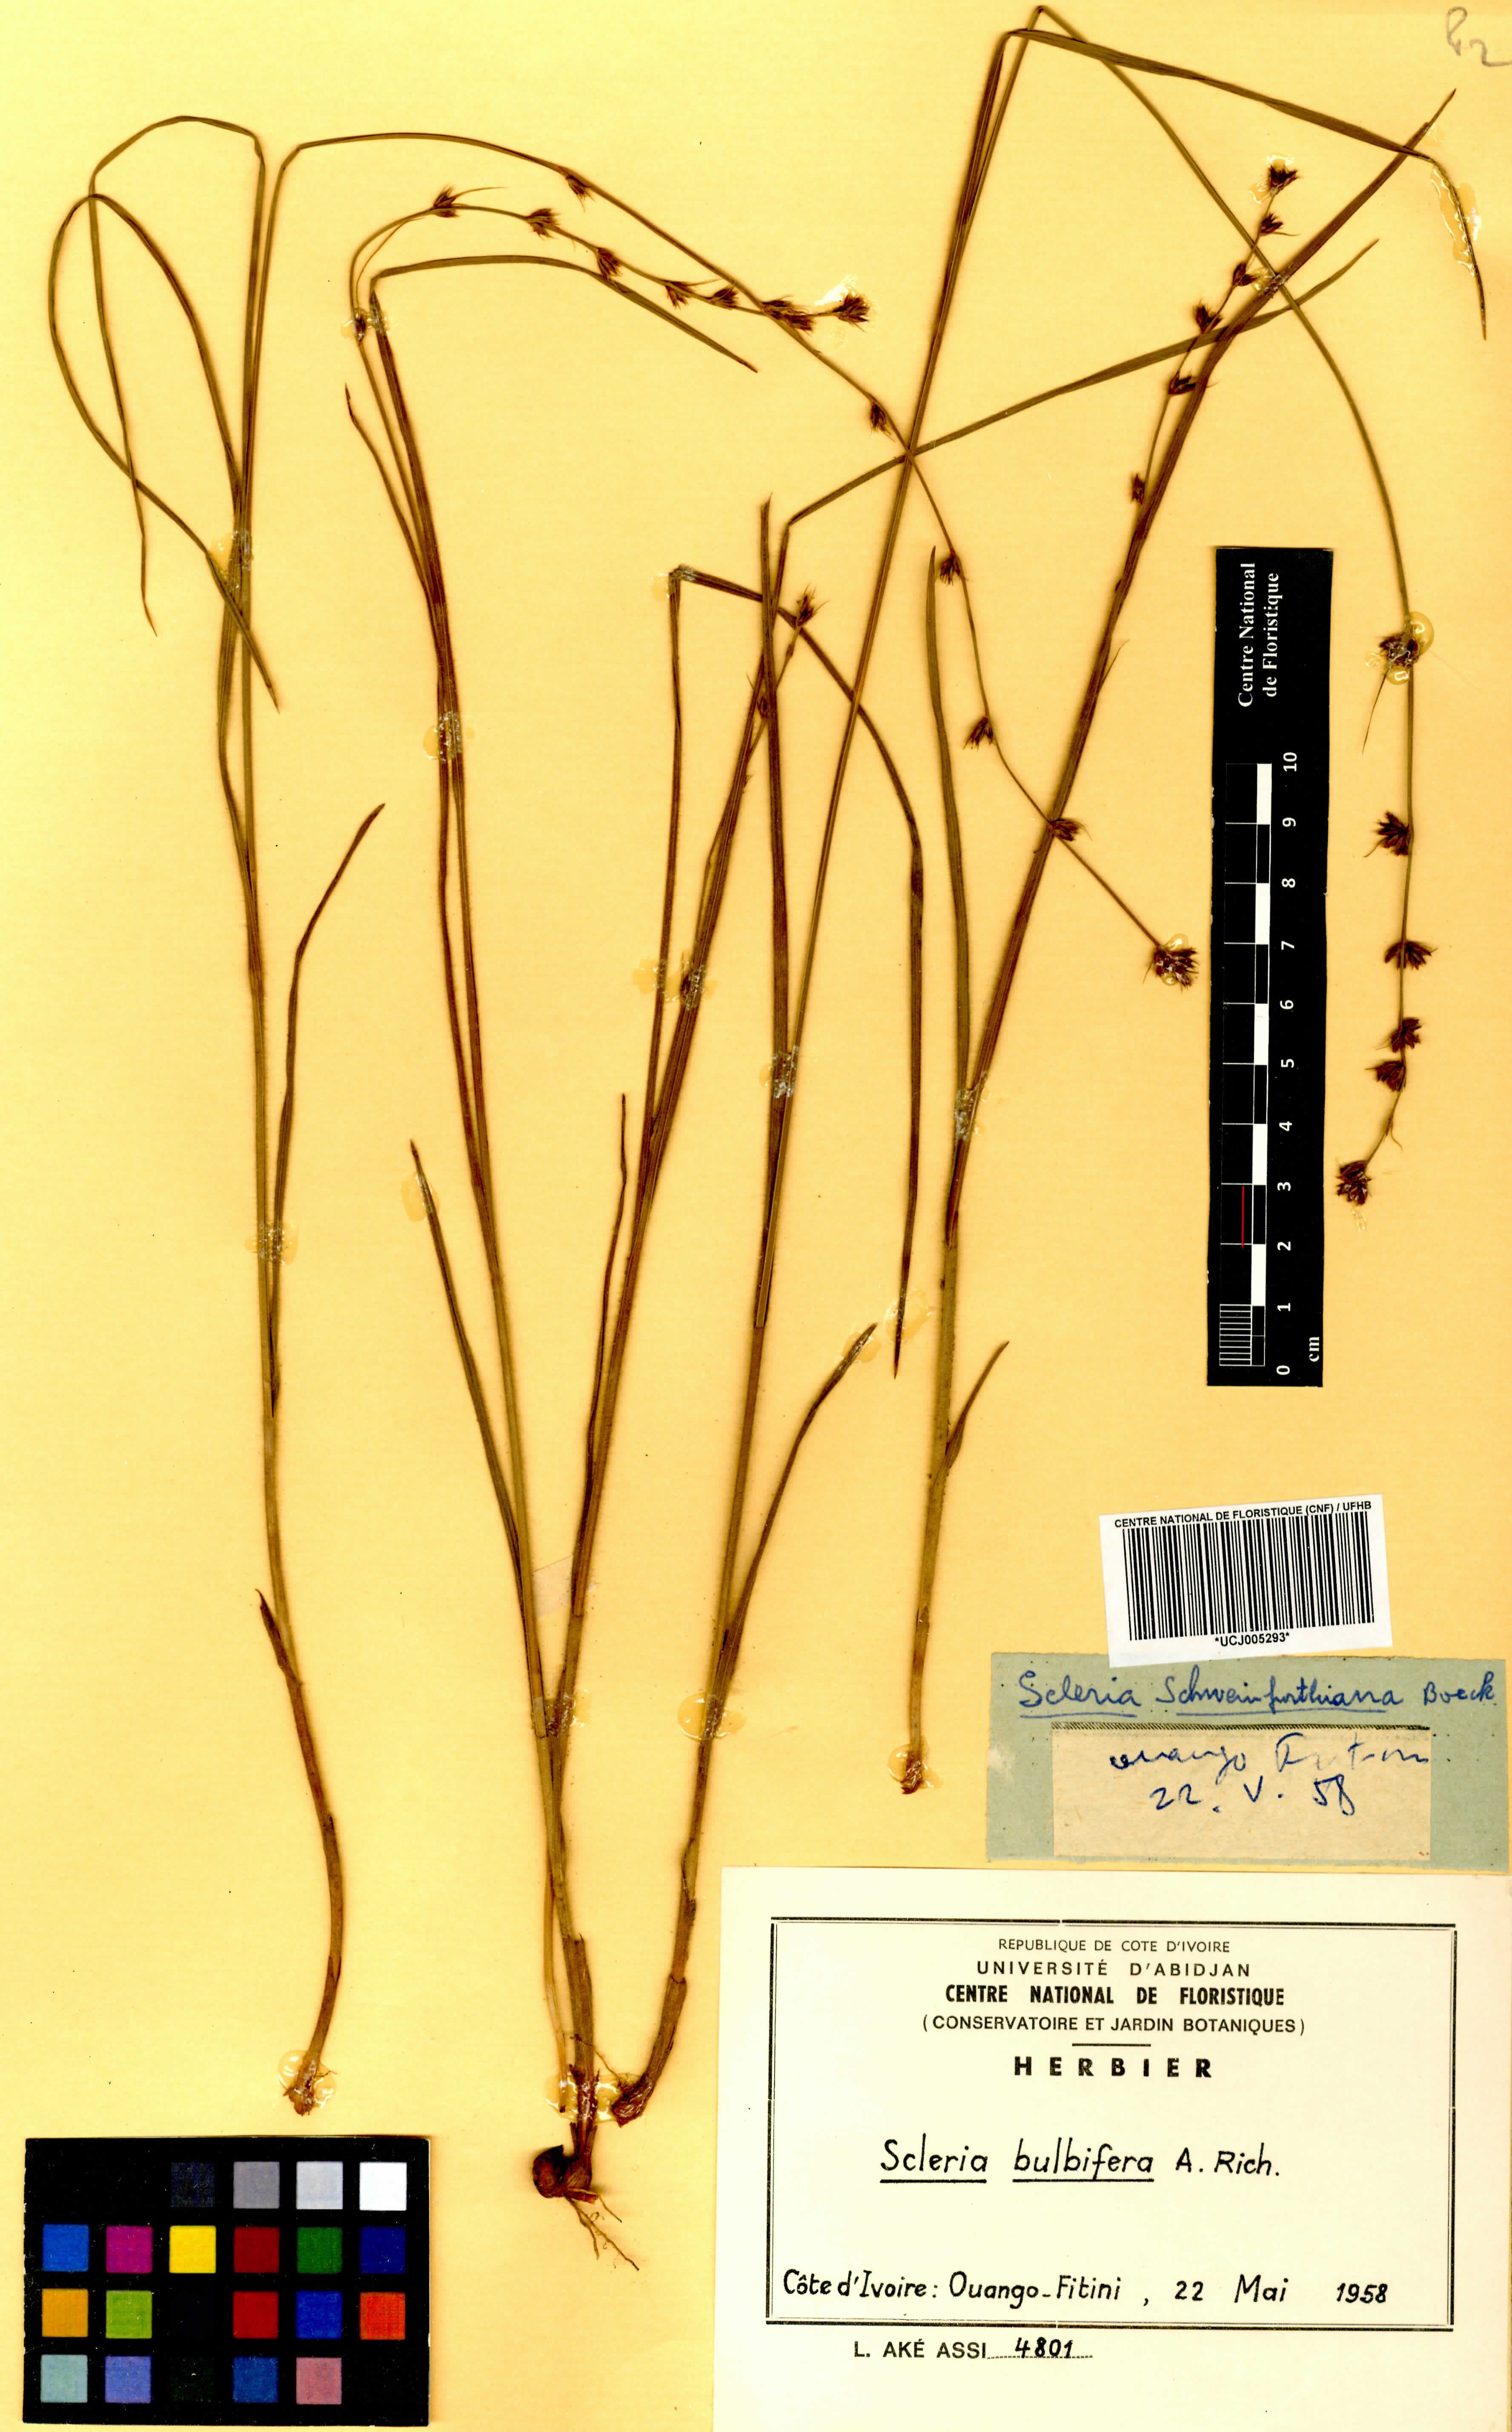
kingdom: Plantae
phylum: Tracheophyta
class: Liliopsida
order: Poales
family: Cyperaceae
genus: Scleria
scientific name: Scleria bulbifera
